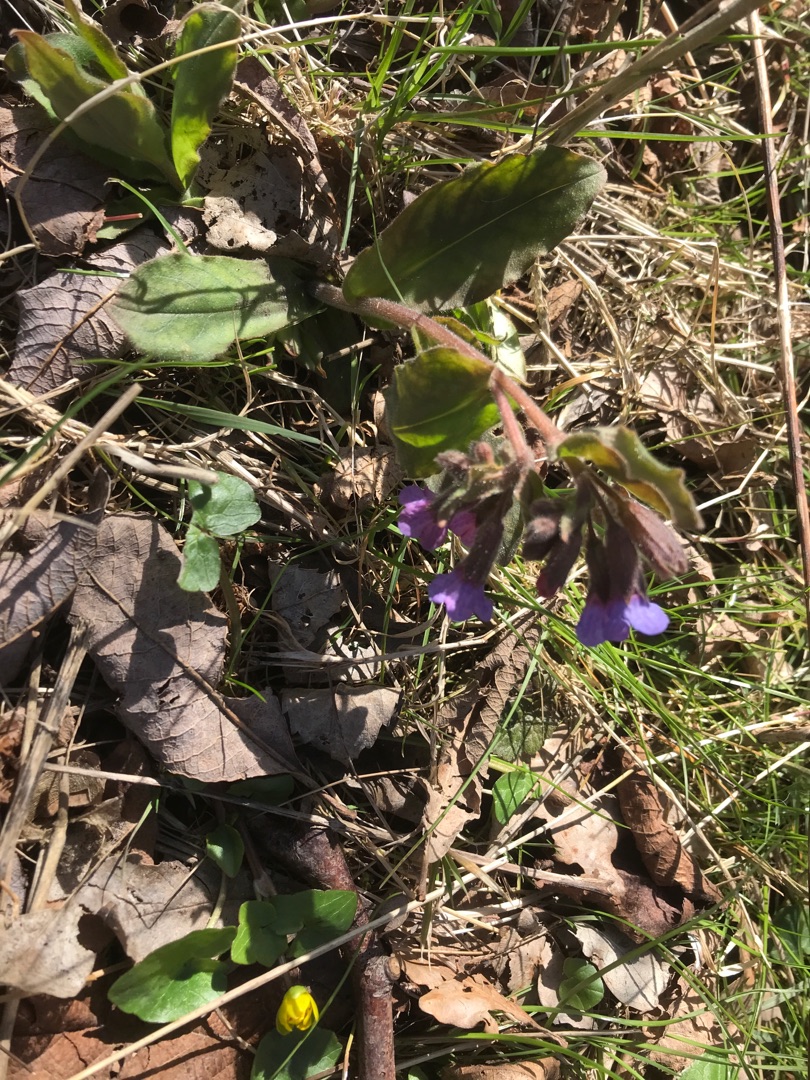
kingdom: Plantae
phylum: Tracheophyta
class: Magnoliopsida
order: Boraginales
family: Boraginaceae
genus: Pulmonaria
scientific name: Pulmonaria obscura
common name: Almindelig lungeurt
